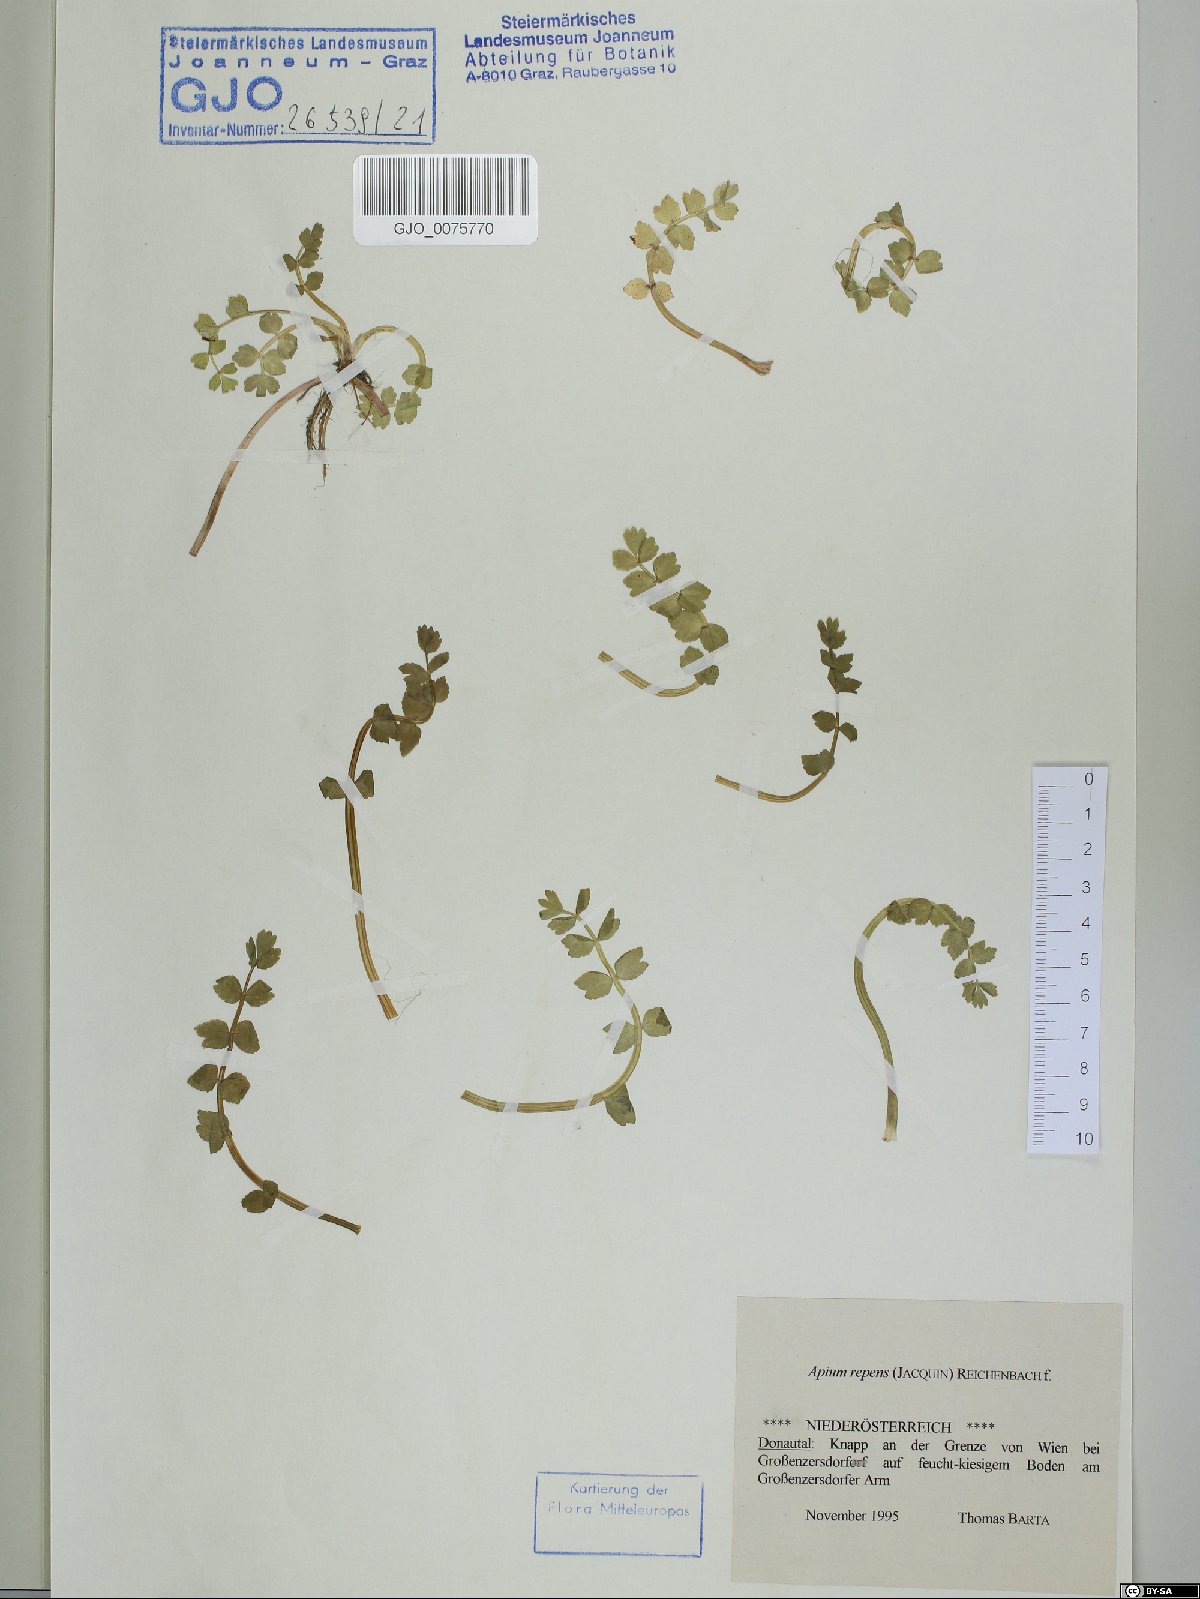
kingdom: Plantae
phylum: Tracheophyta
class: Magnoliopsida
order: Apiales
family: Apiaceae
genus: Helosciadium
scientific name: Helosciadium repens
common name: Creeping marshwort
